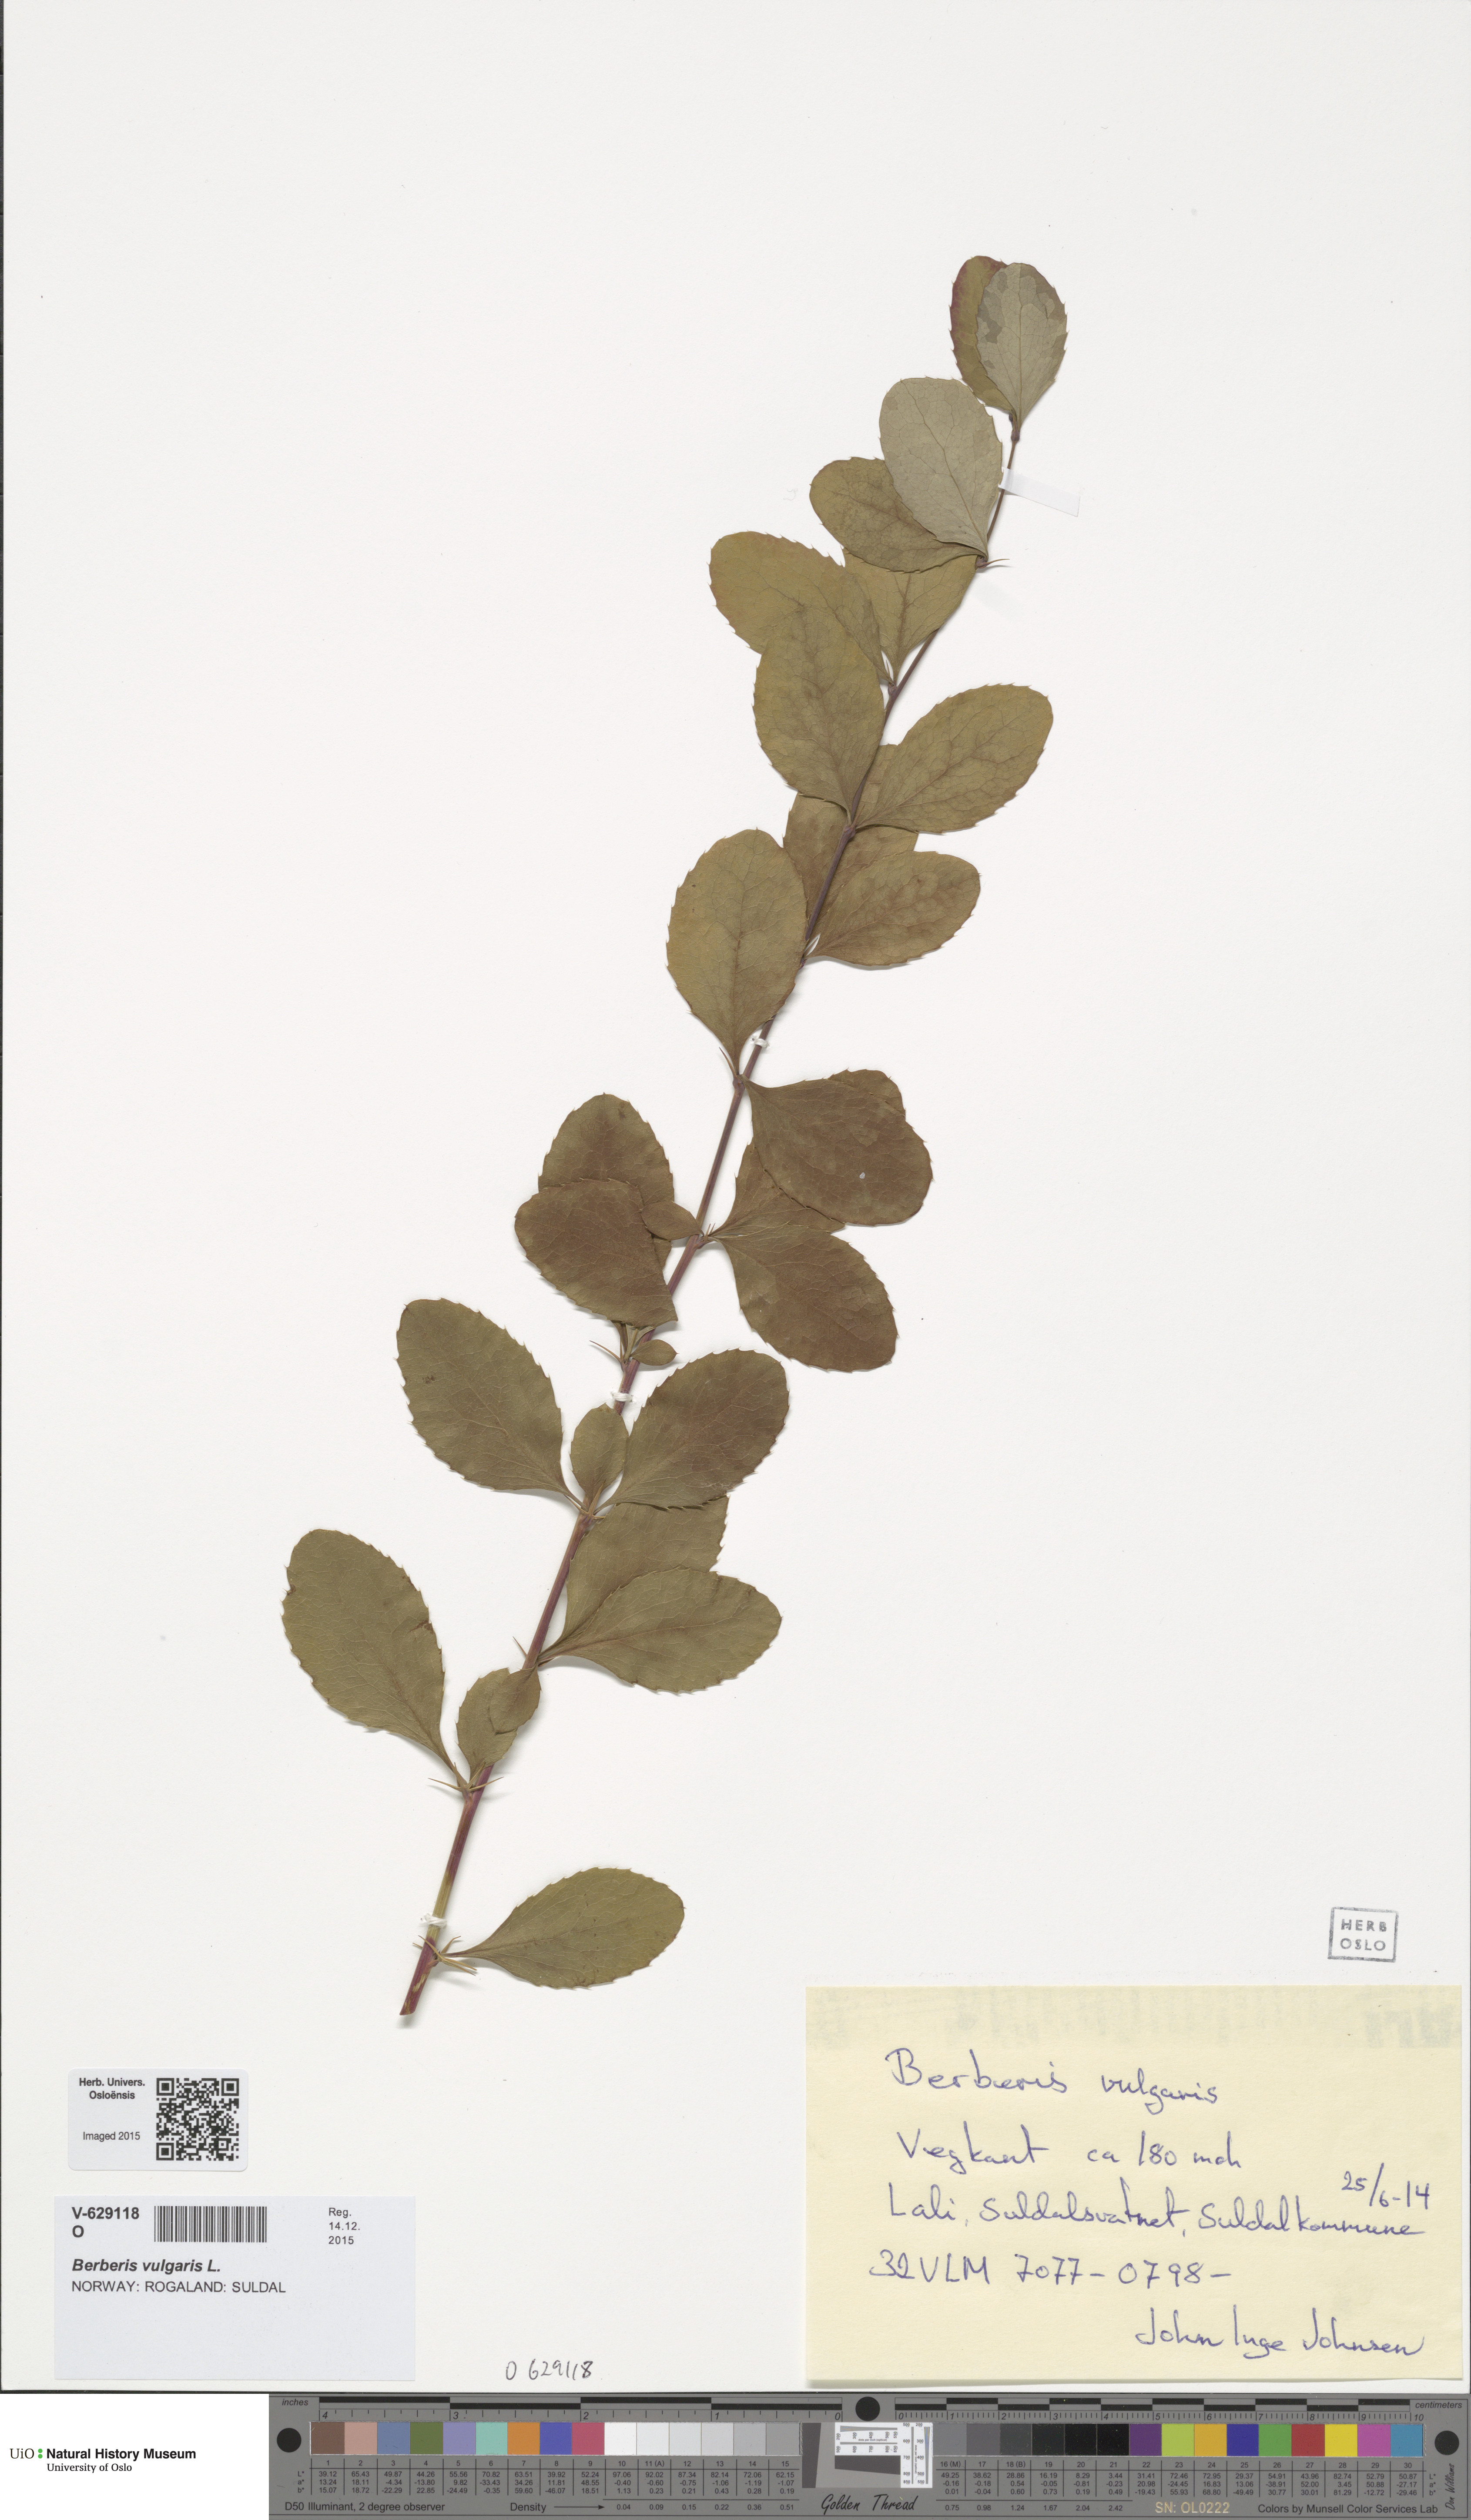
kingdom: Plantae
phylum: Tracheophyta
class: Magnoliopsida
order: Ranunculales
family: Berberidaceae
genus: Berberis
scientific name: Berberis vulgaris
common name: Barberry
